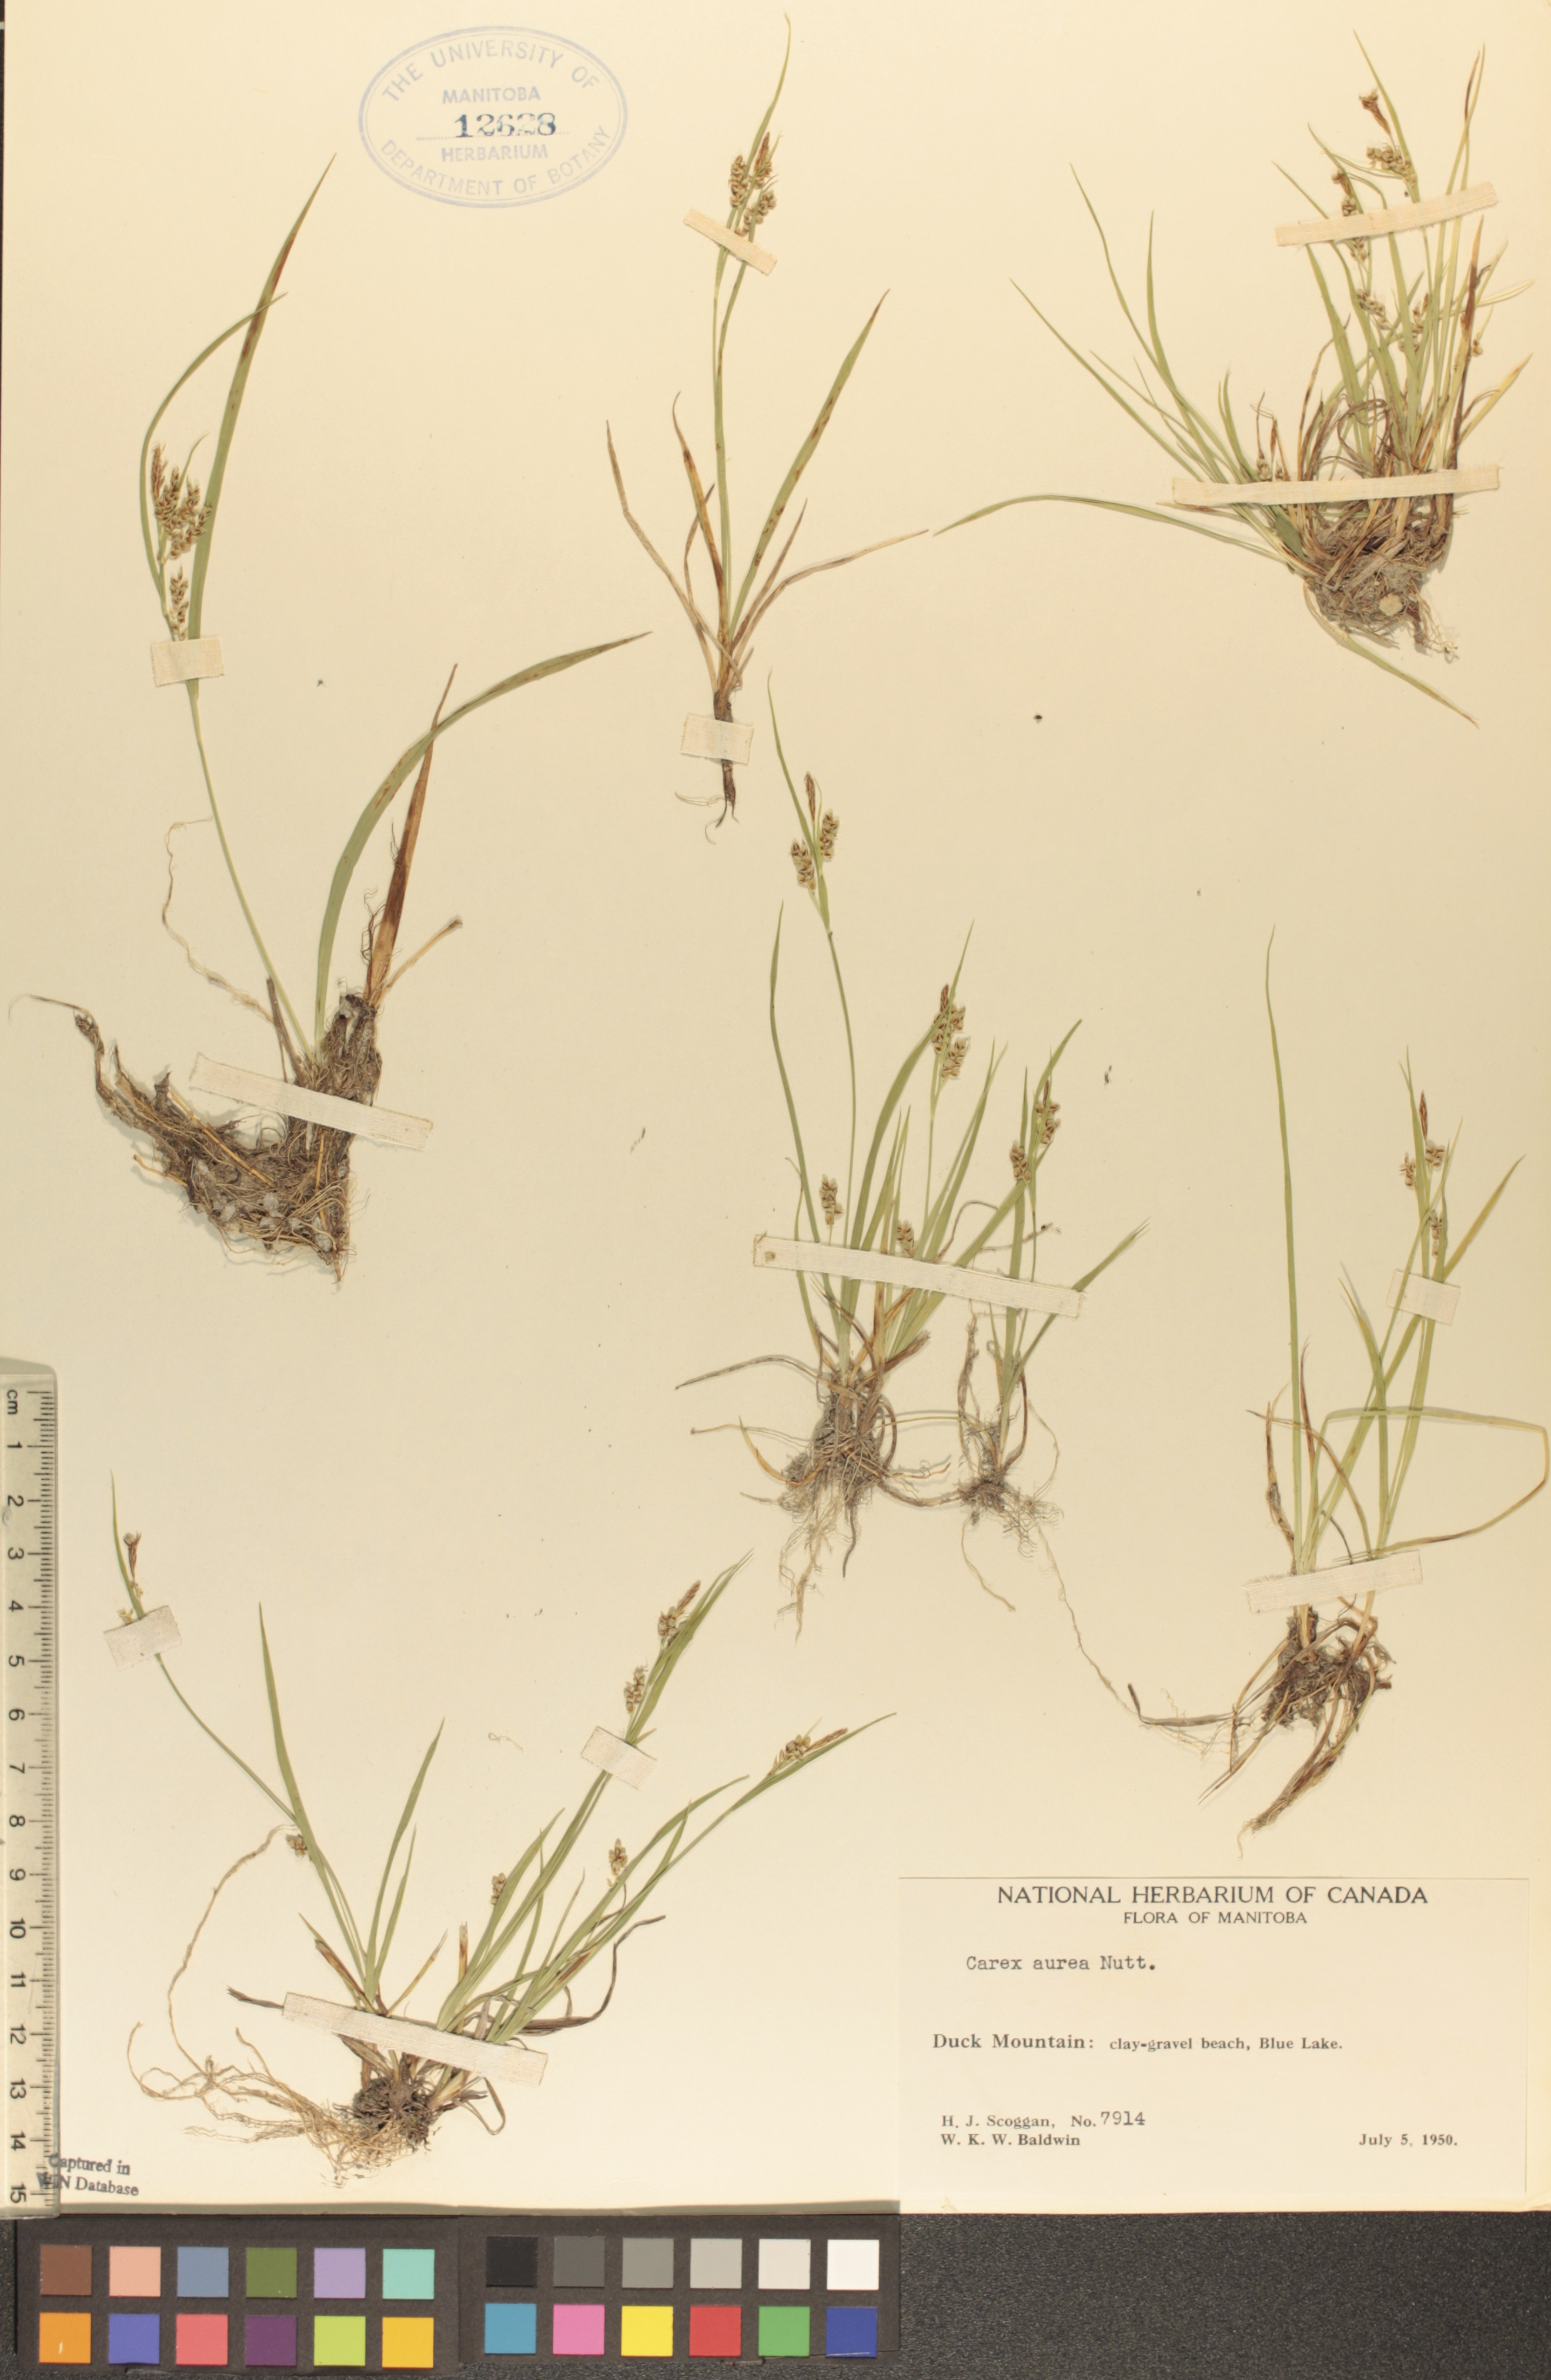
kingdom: Plantae
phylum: Tracheophyta
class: Liliopsida
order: Poales
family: Cyperaceae
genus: Carex
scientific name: Carex aurea
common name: Golden sedge
